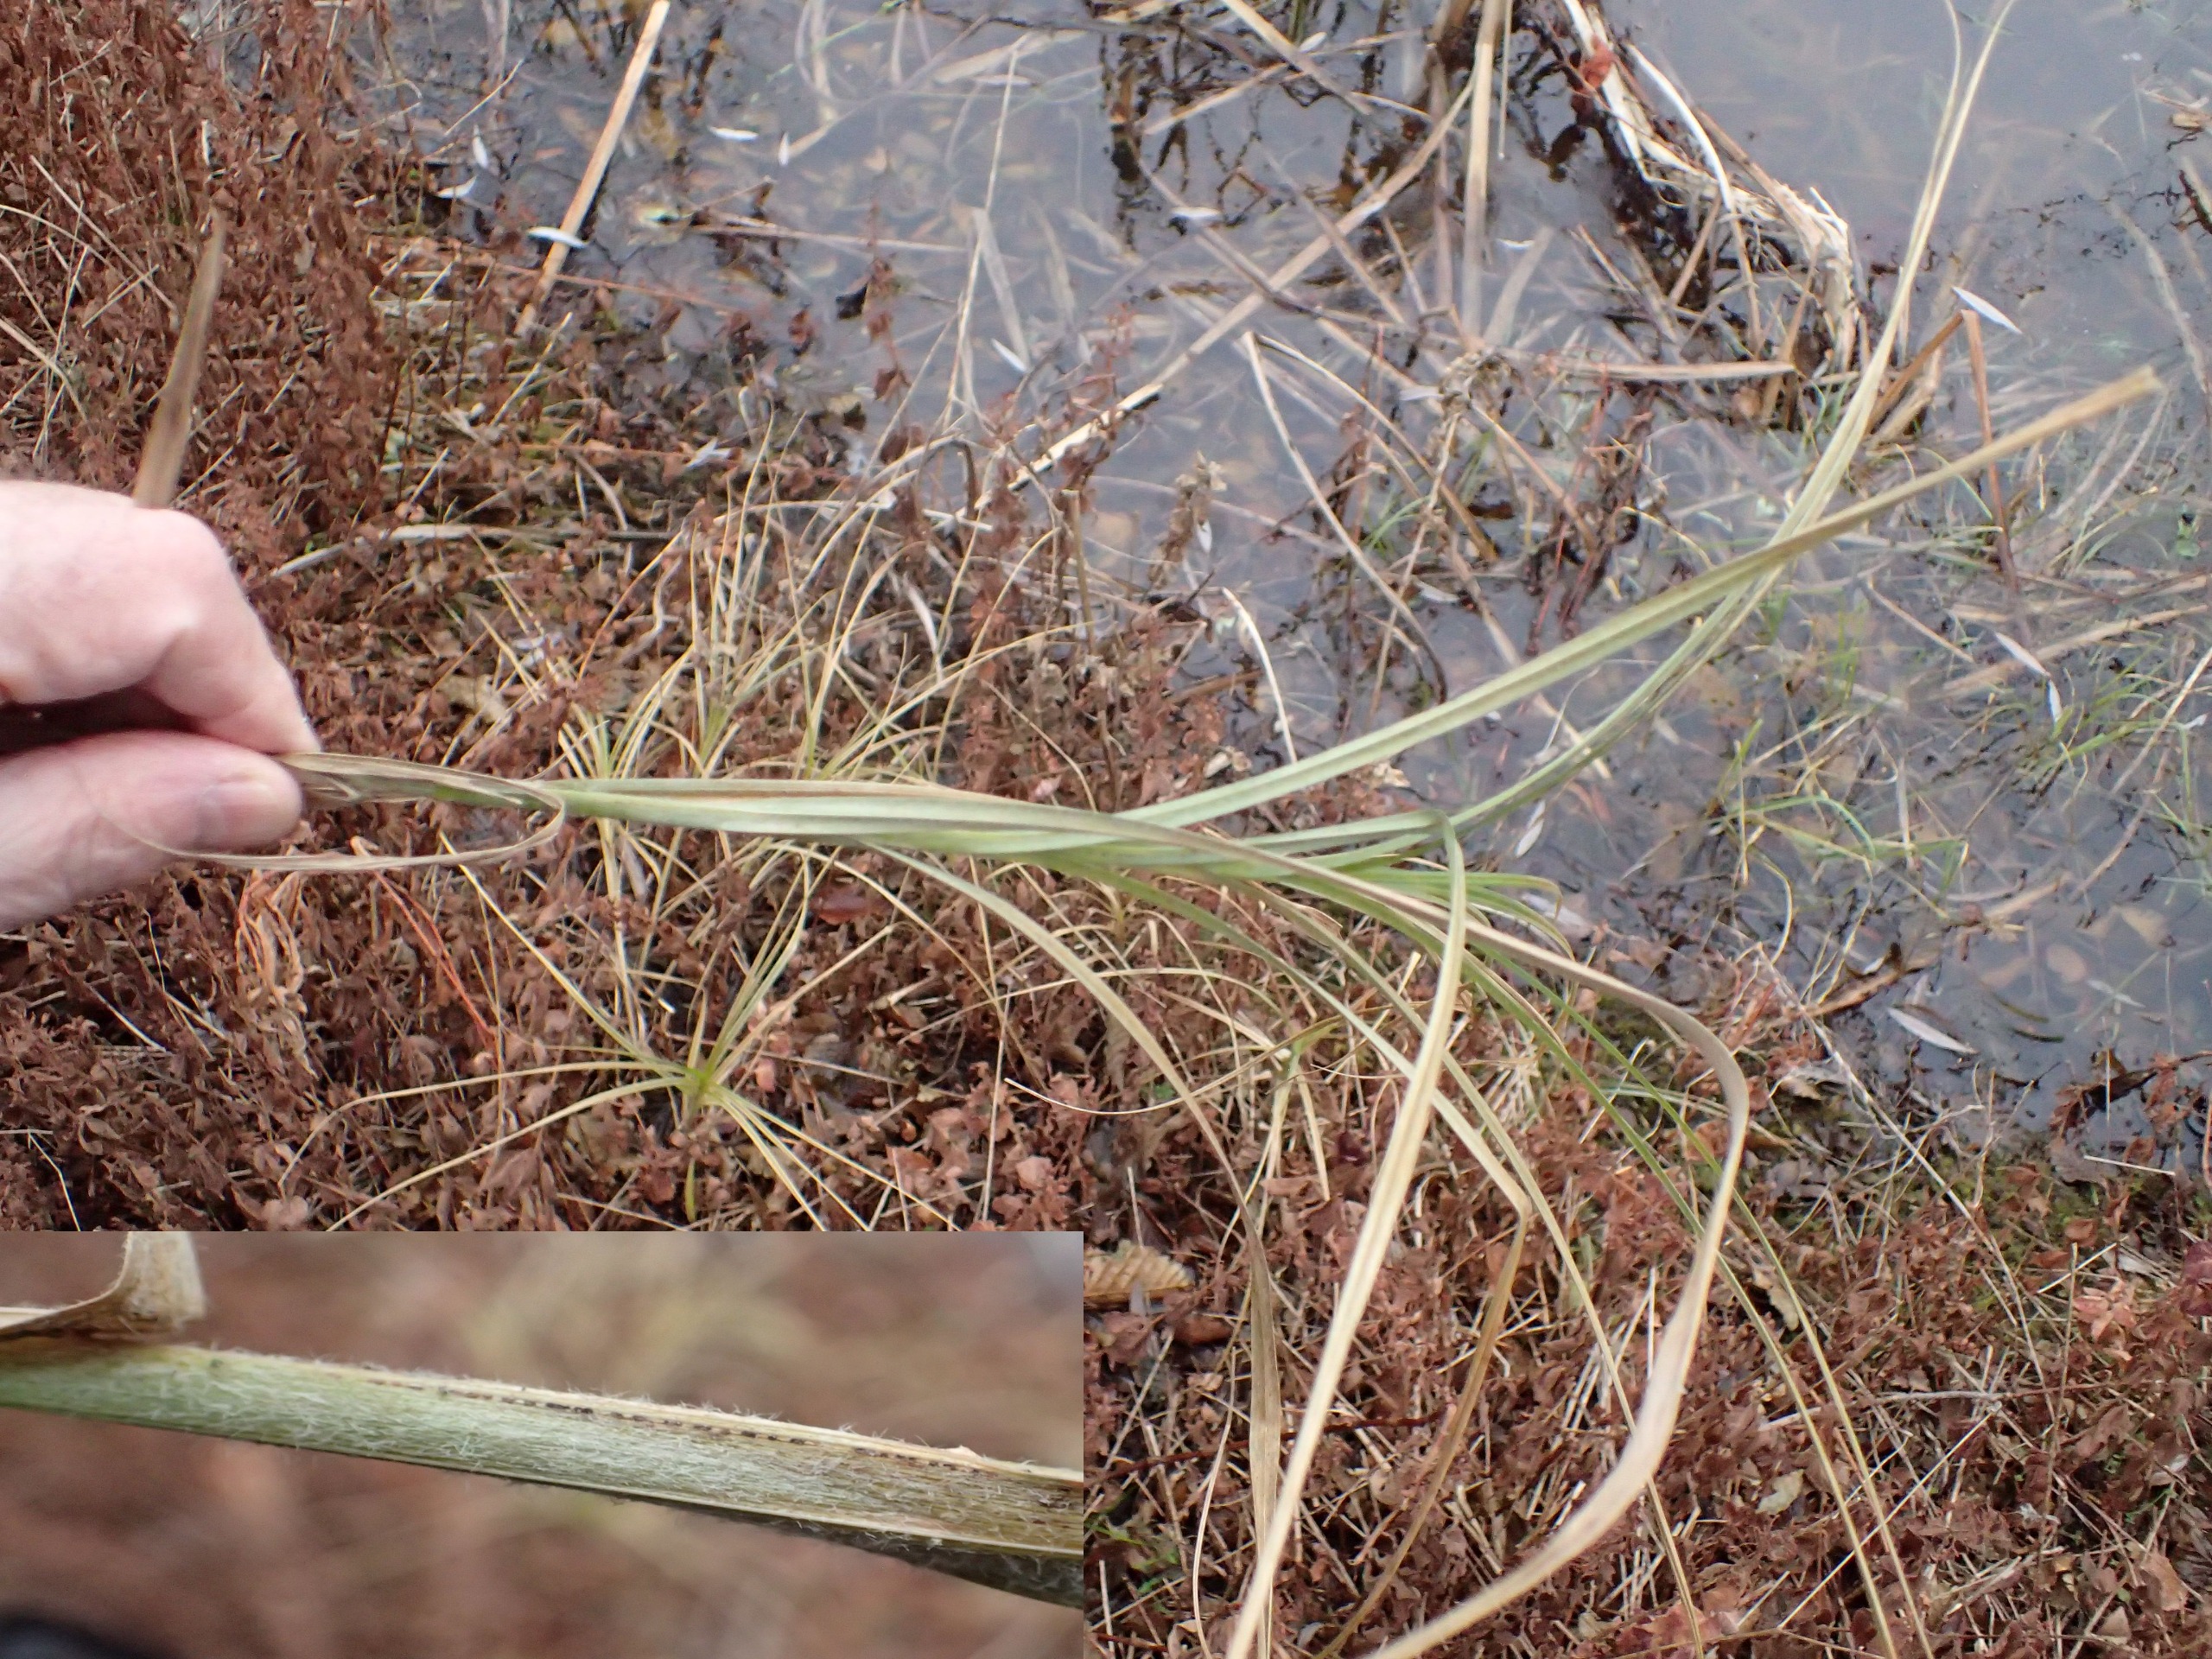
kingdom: Plantae
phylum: Tracheophyta
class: Liliopsida
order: Poales
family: Cyperaceae
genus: Carex
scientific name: Carex hirta
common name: Håret star
